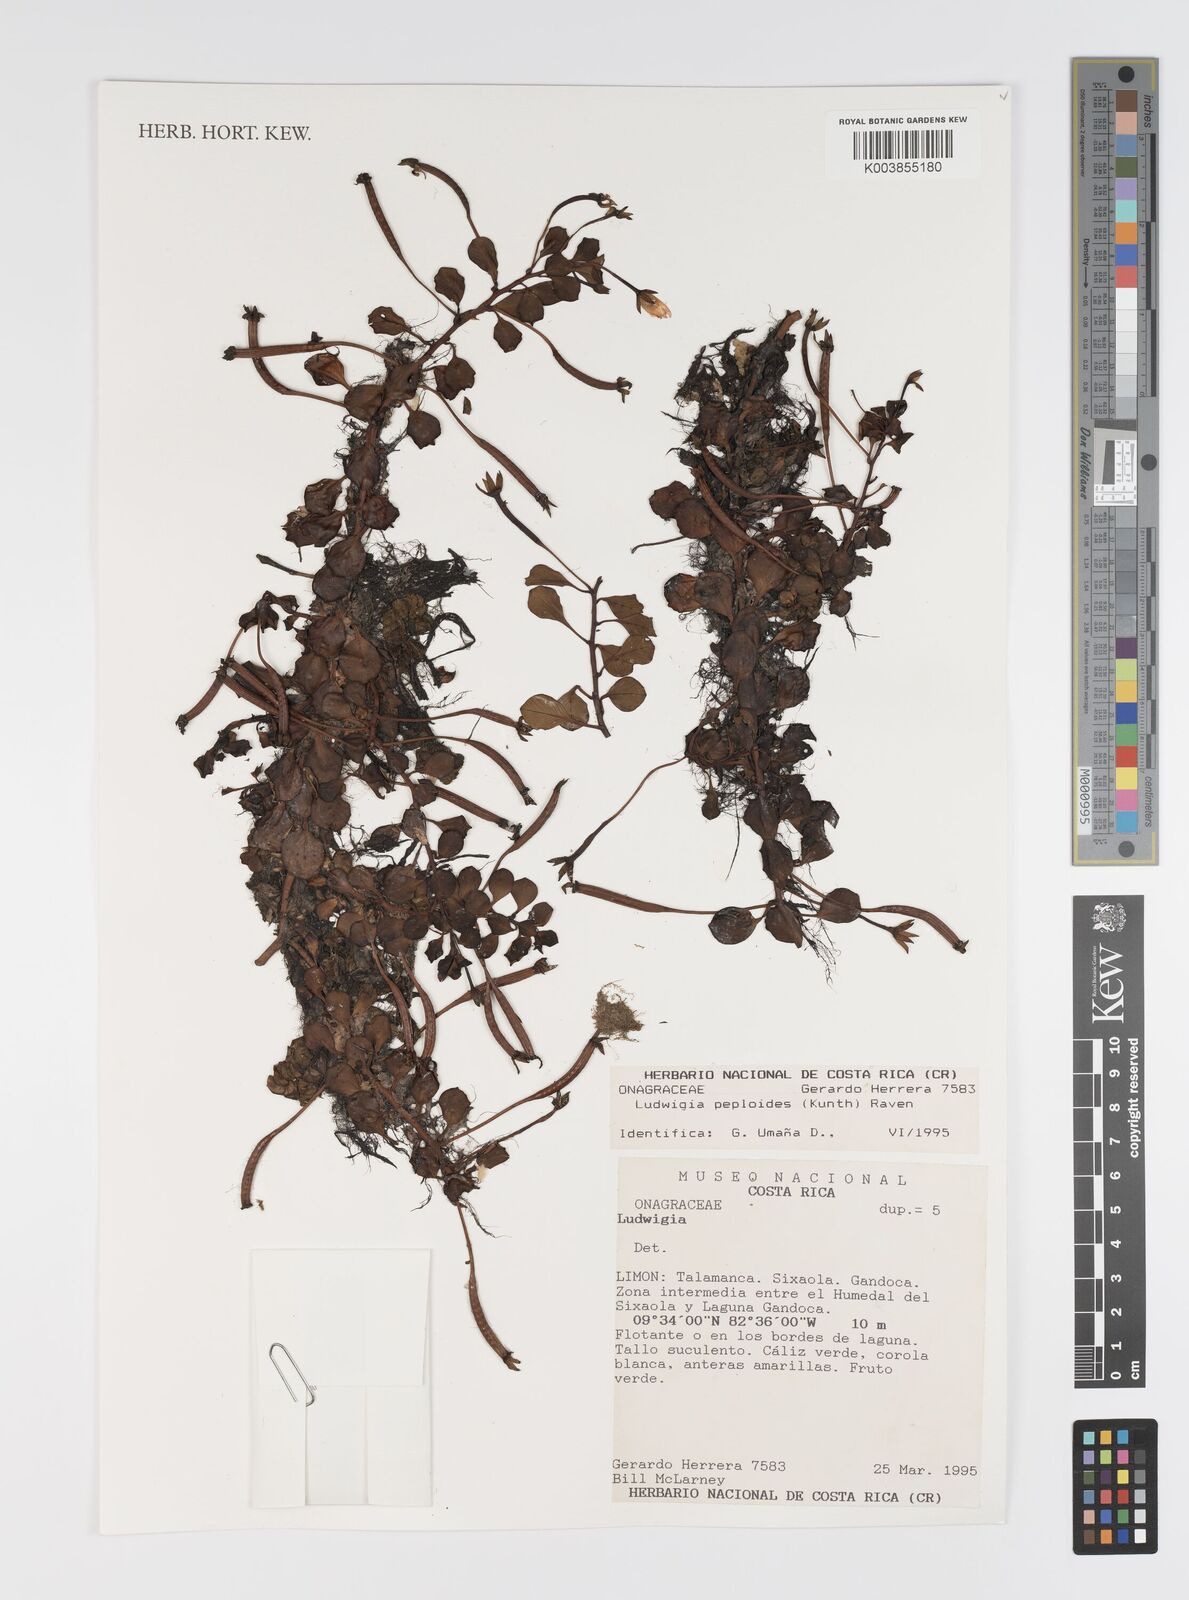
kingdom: Plantae
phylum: Tracheophyta
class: Magnoliopsida
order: Myrtales
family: Onagraceae
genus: Ludwigia
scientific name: Ludwigia peploides
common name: Floating primrose-willow
